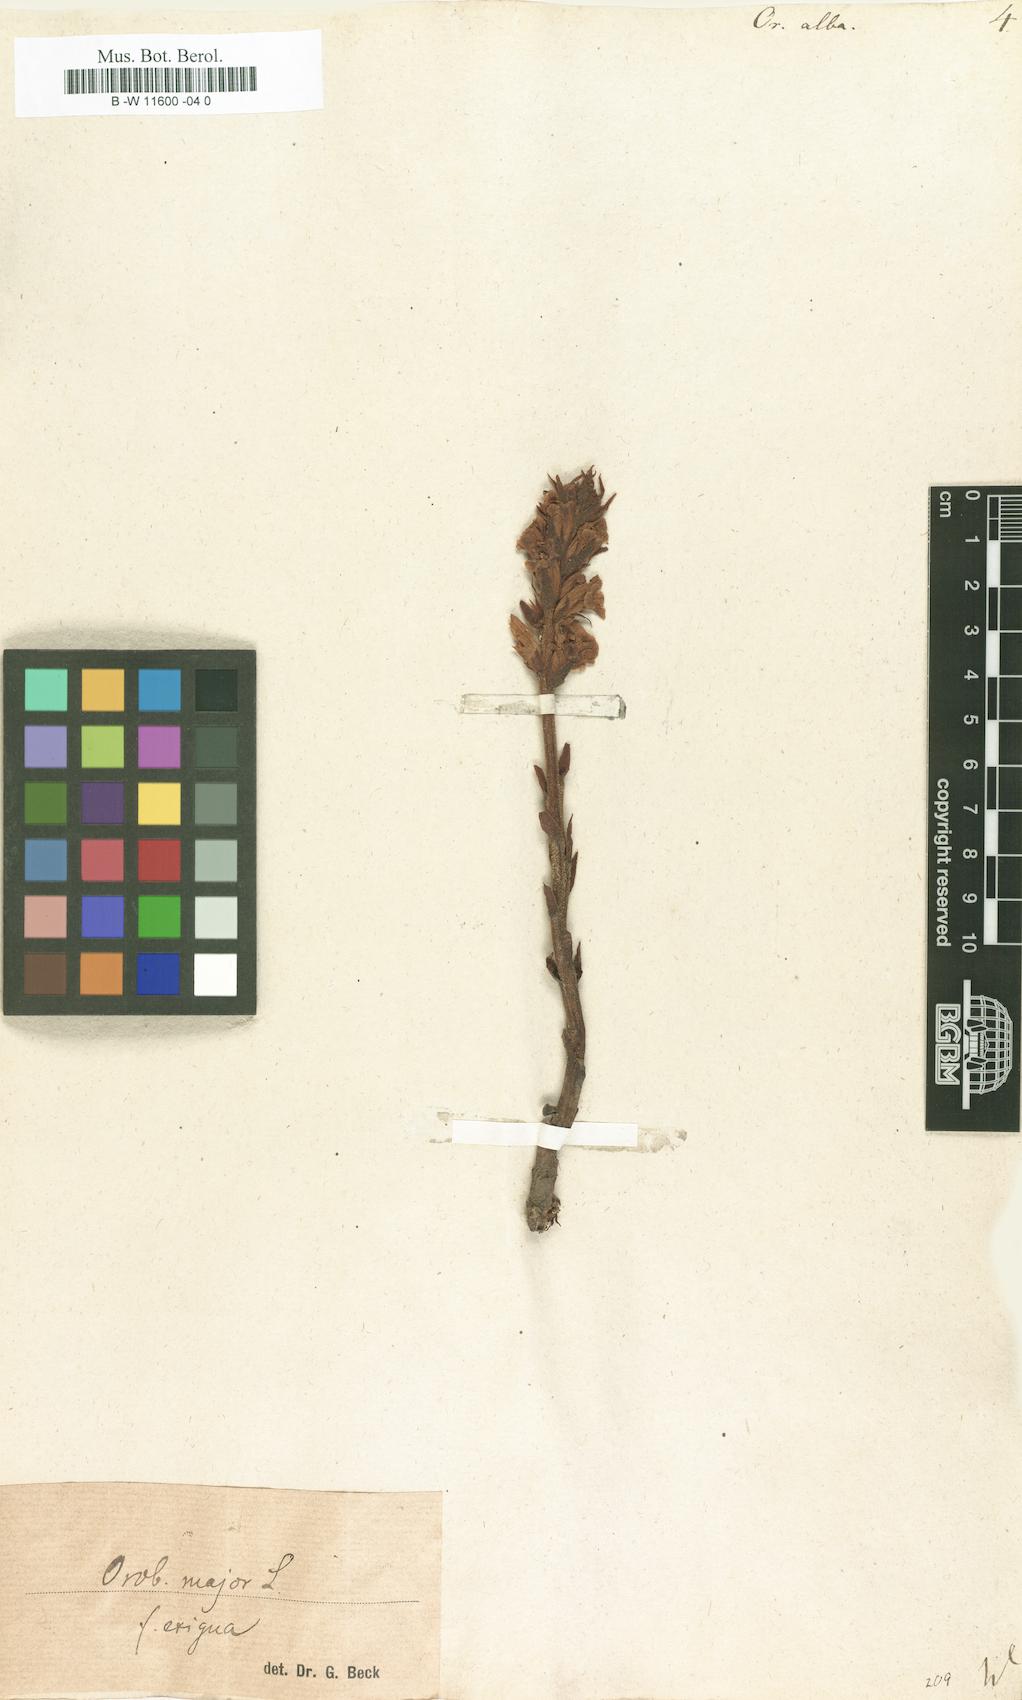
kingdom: Plantae
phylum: Tracheophyta
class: Magnoliopsida
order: Lamiales
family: Orobanchaceae
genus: Orobanche
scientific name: Orobanche alba
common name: Thyme broomrape
